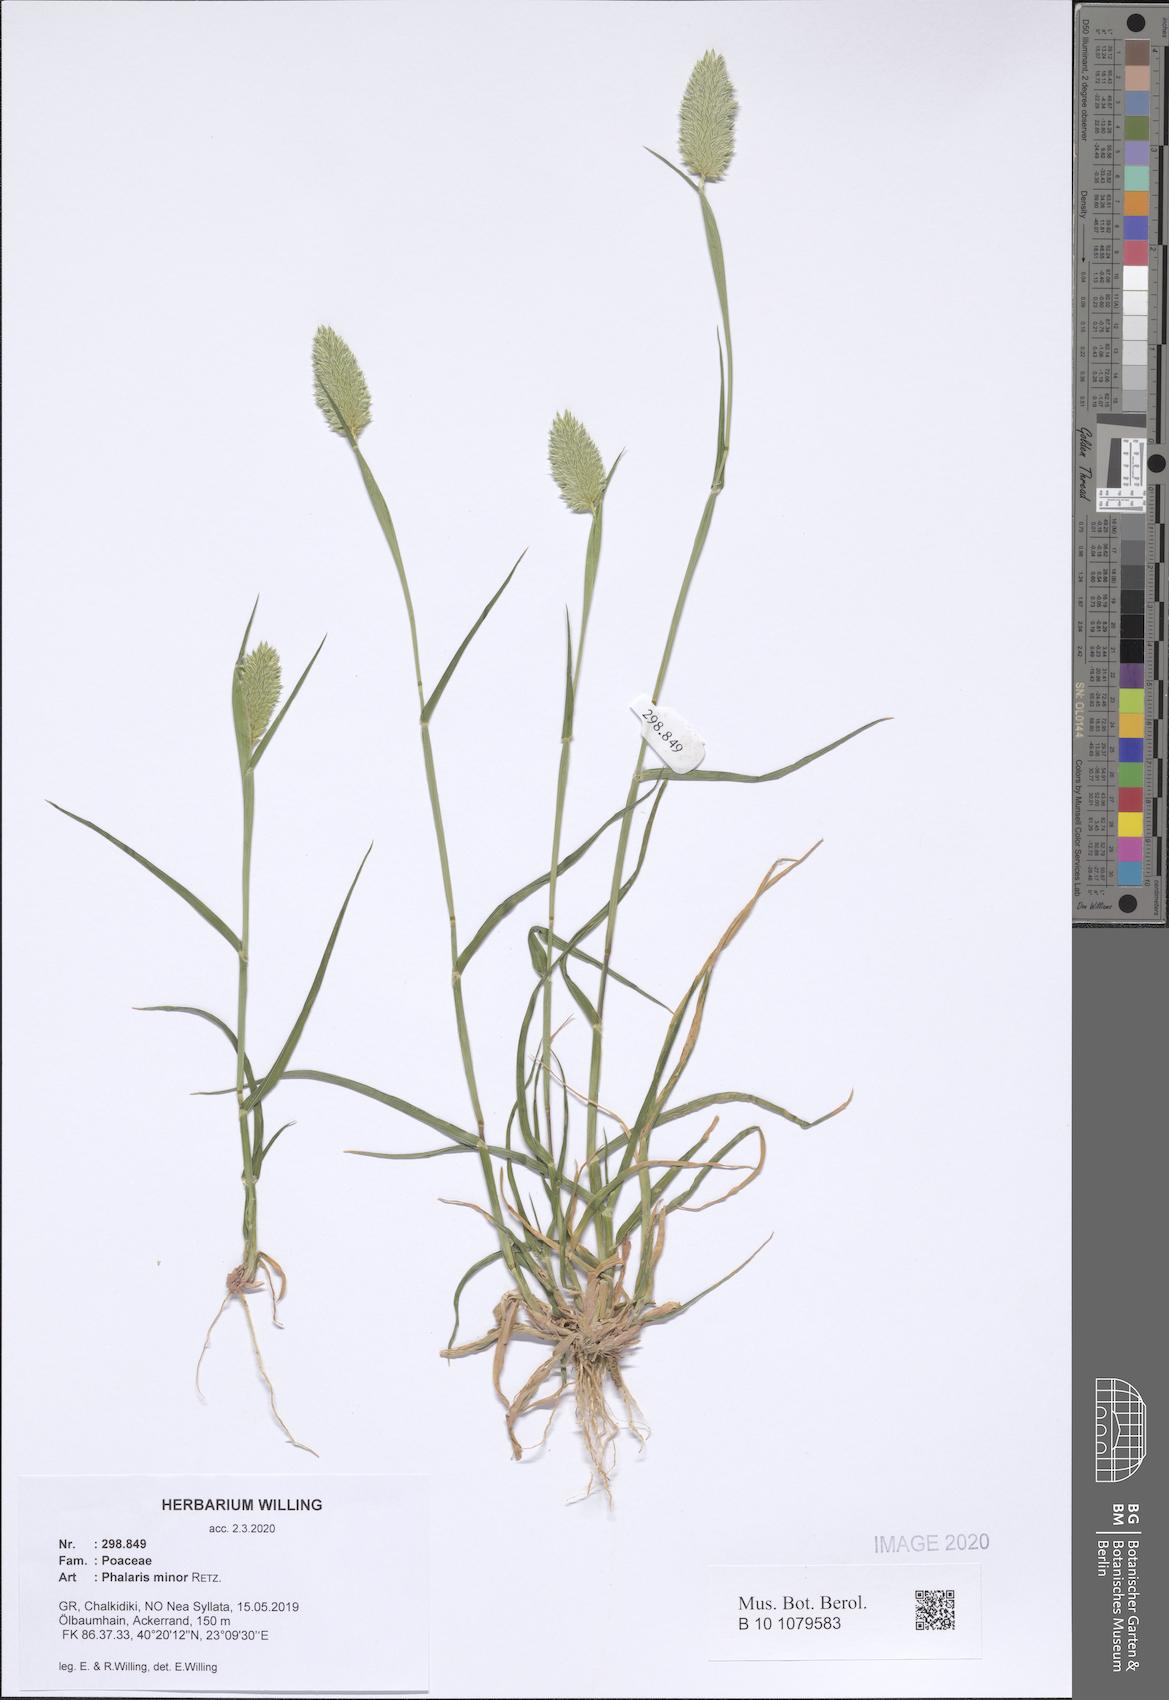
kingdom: Plantae
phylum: Tracheophyta
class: Liliopsida
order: Poales
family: Poaceae
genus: Phalaris
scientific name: Phalaris minor
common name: Littleseed canarygrass
